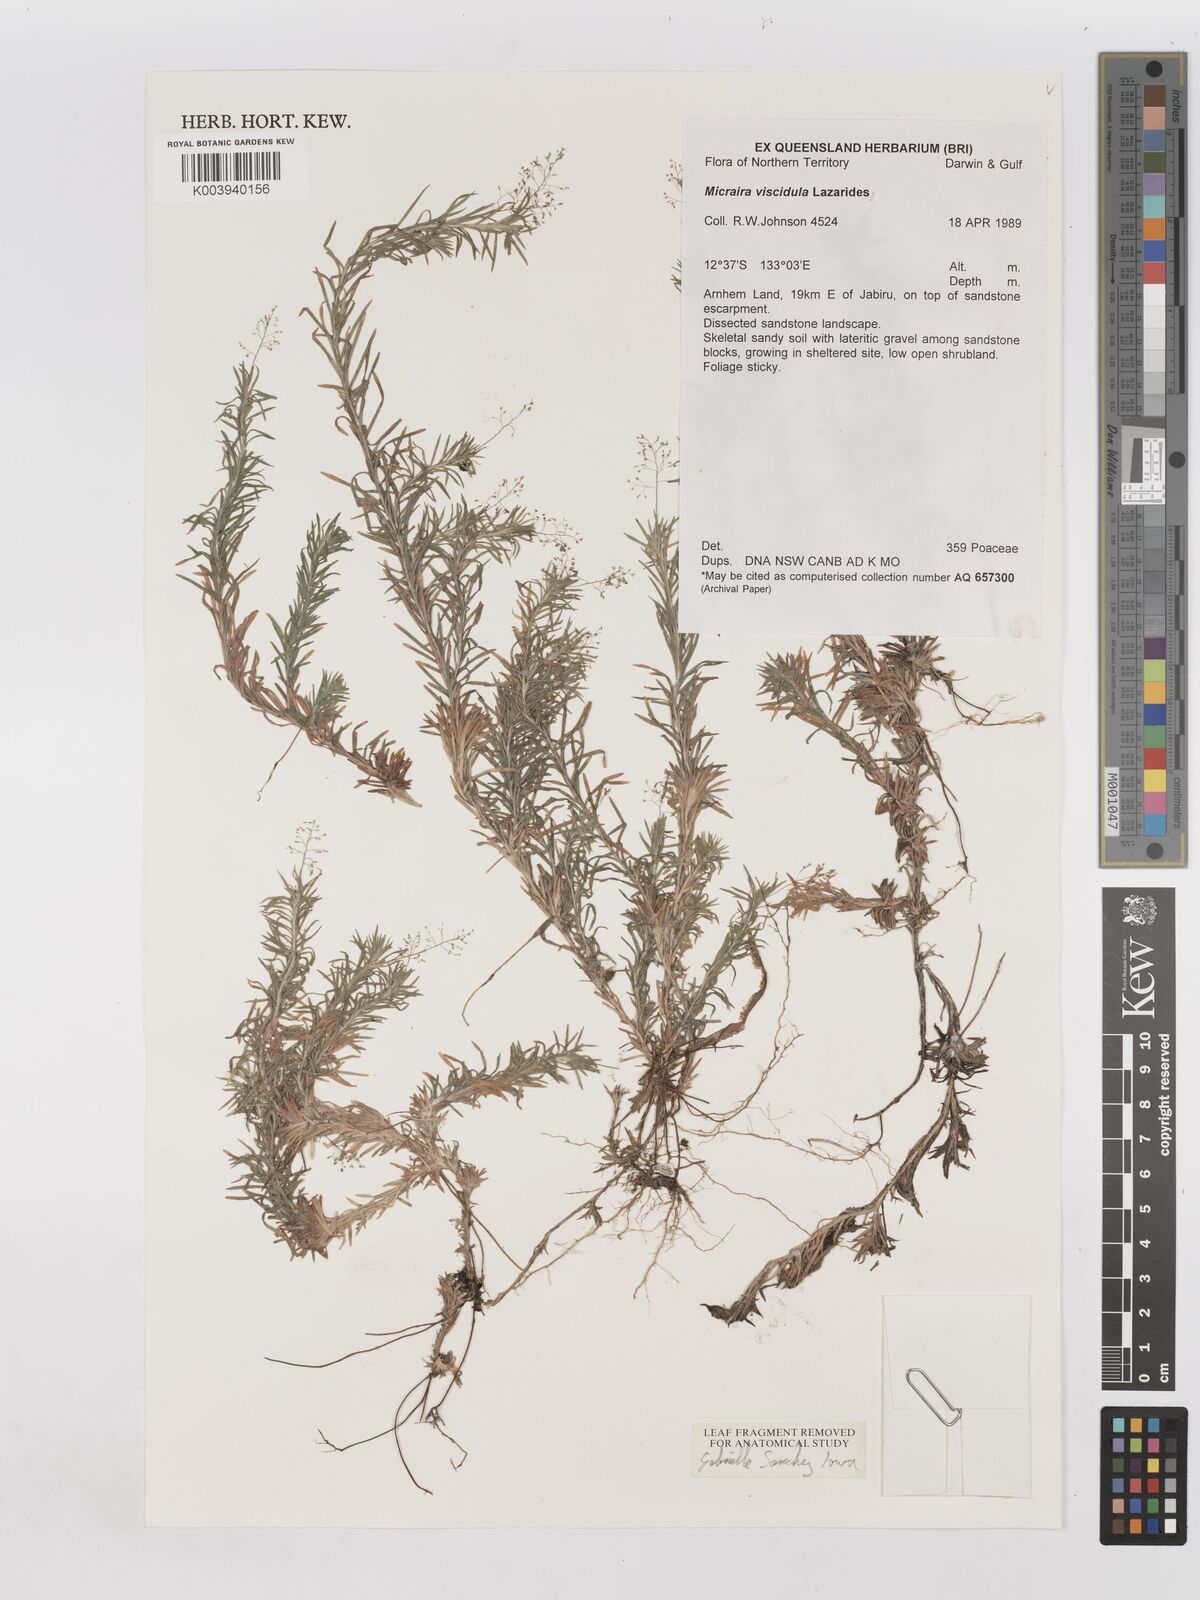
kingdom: Plantae
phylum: Tracheophyta
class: Liliopsida
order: Poales
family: Poaceae
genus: Micraira
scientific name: Micraira viscidula
